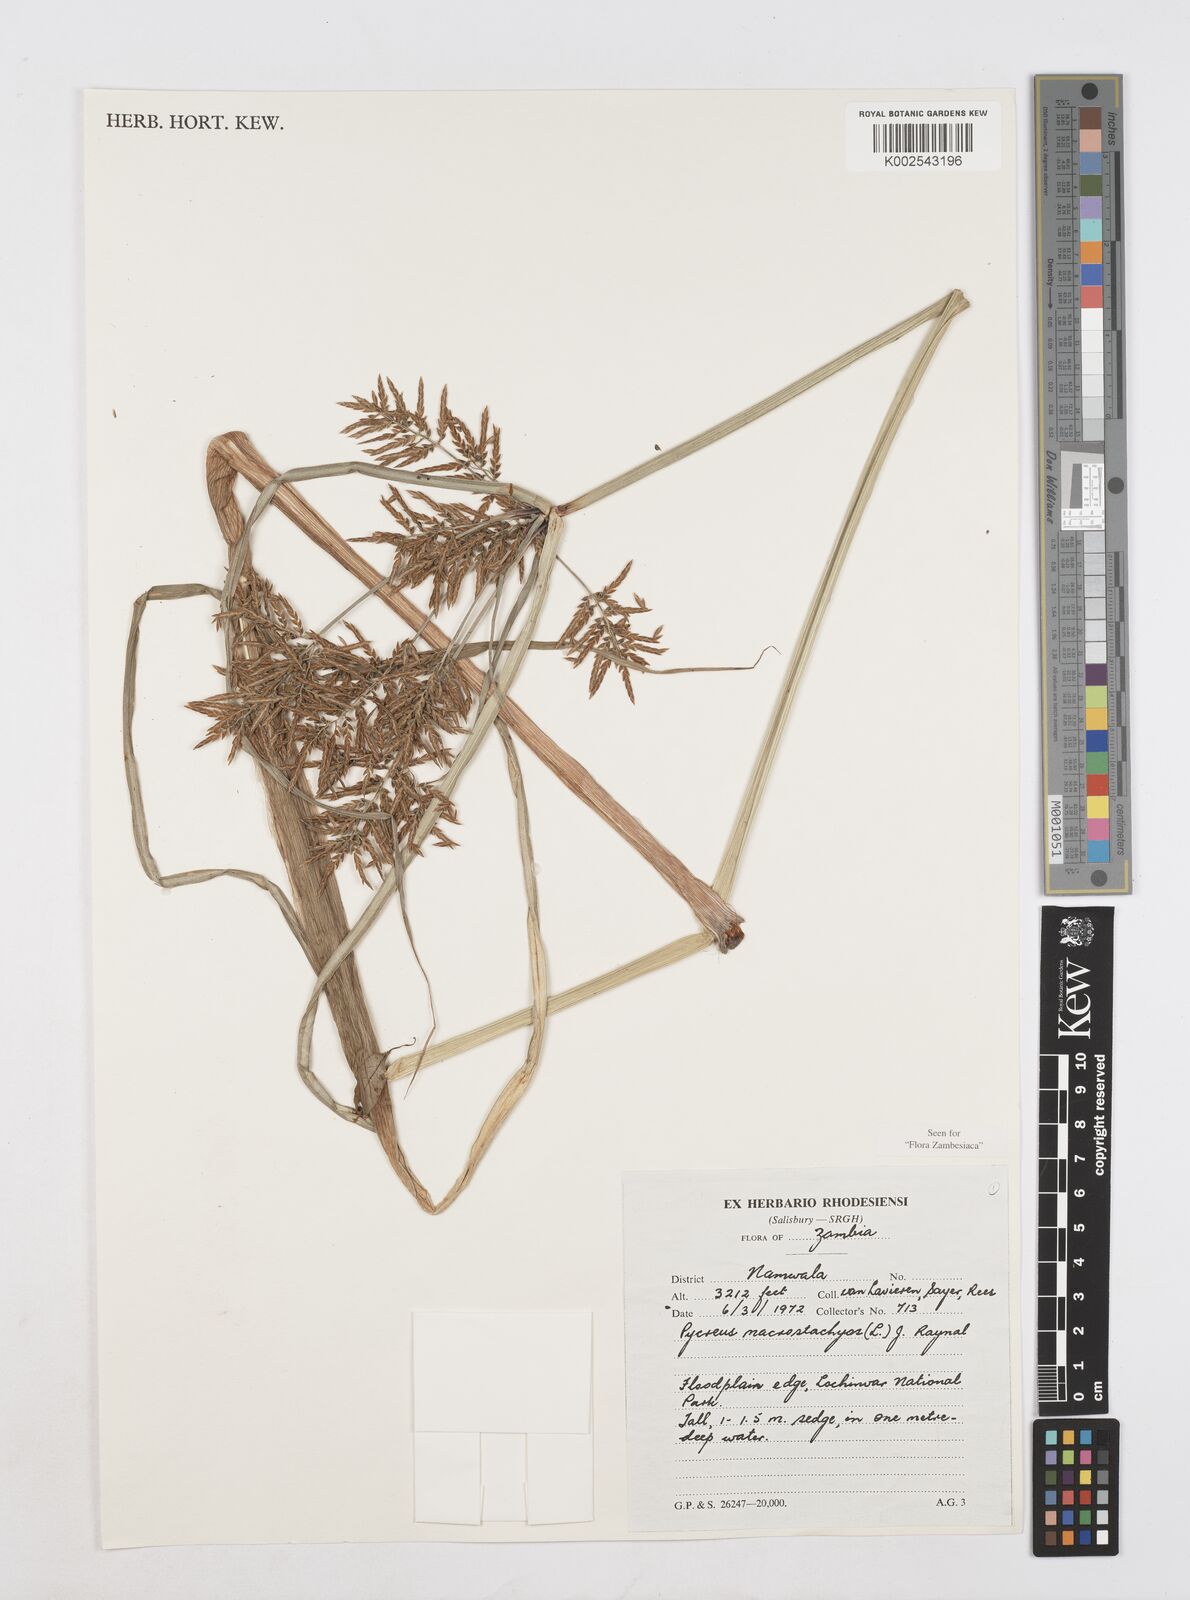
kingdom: Plantae
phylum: Tracheophyta
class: Liliopsida
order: Poales
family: Cyperaceae
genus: Cyperus
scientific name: Cyperus macrostachyos
